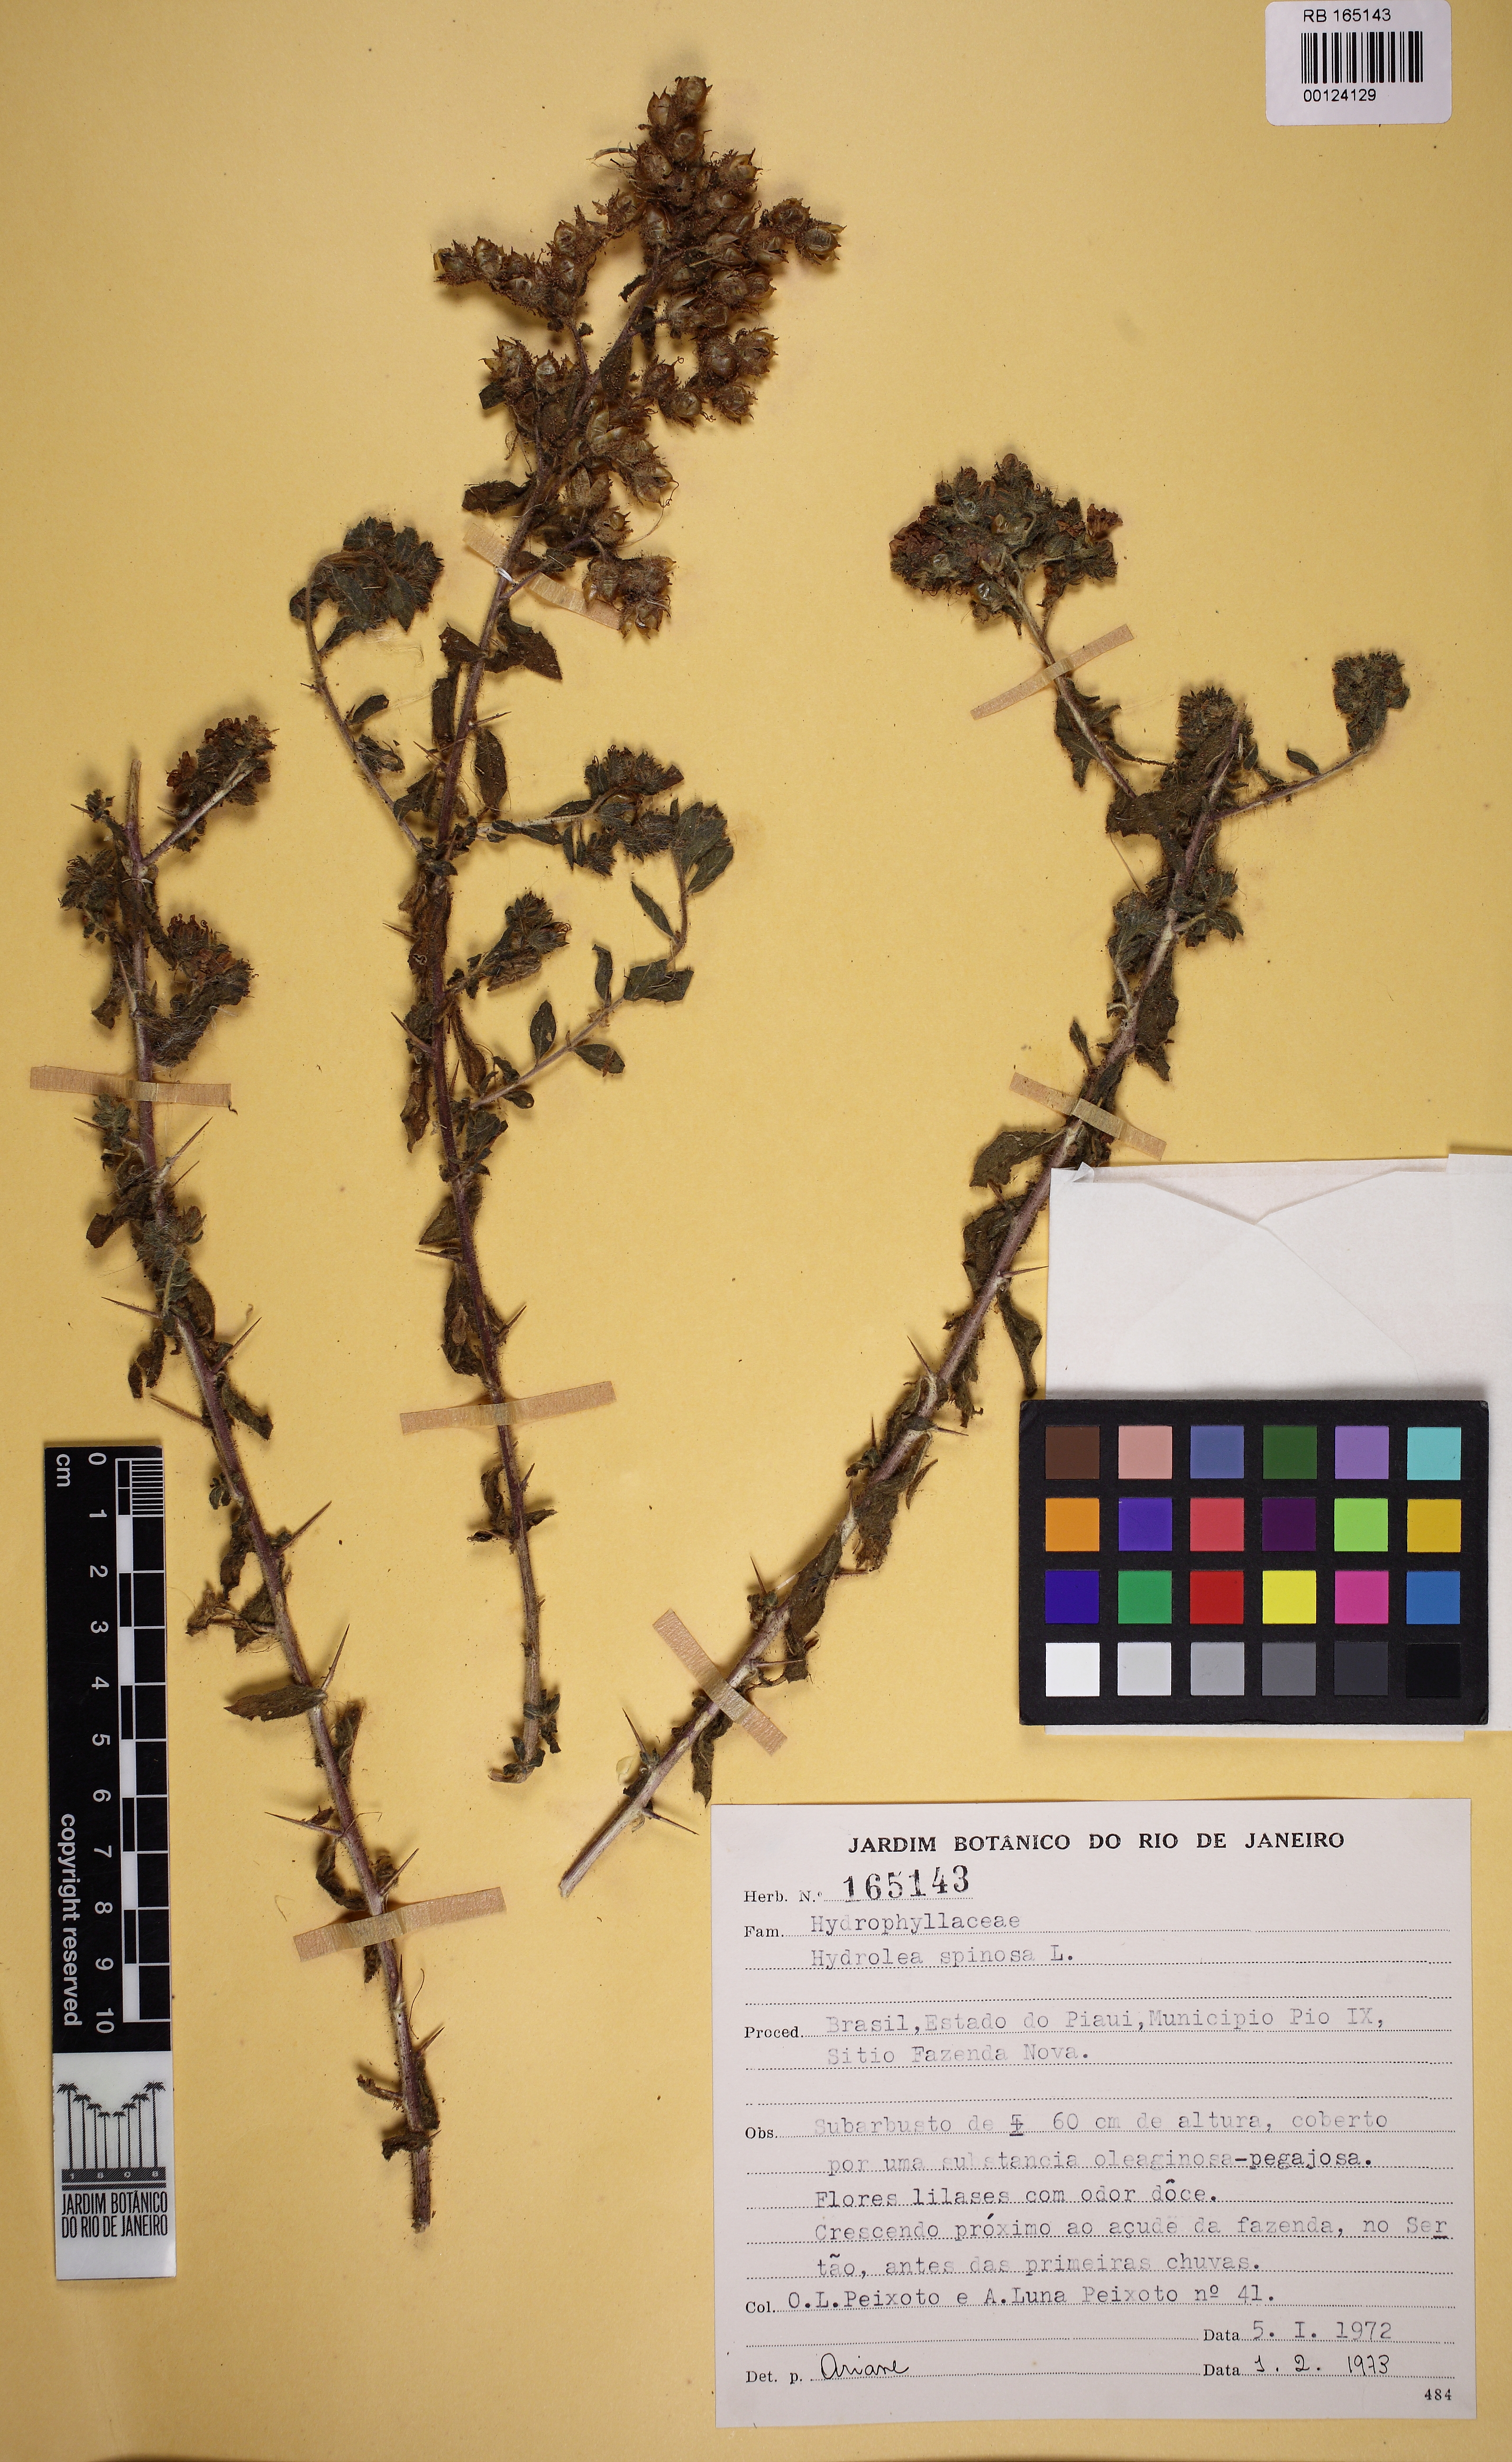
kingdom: Plantae
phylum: Tracheophyta
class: Magnoliopsida
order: Solanales
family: Hydroleaceae
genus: Hydrolea
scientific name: Hydrolea spinosa
